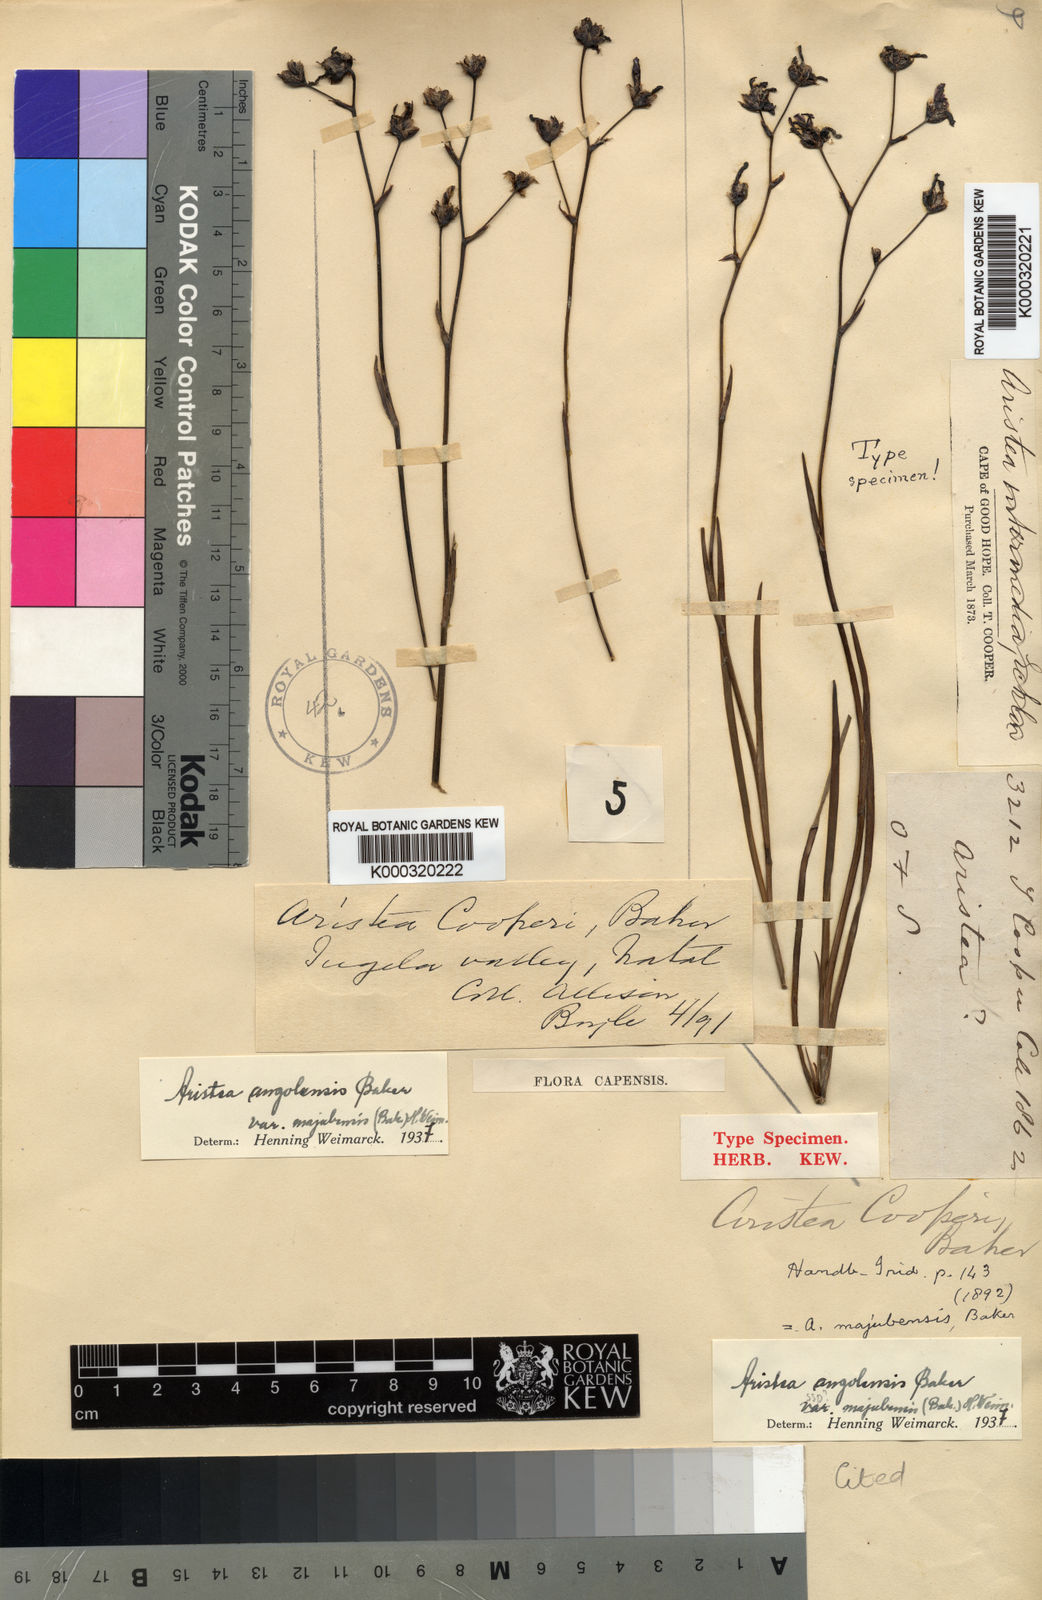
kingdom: Plantae
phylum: Tracheophyta
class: Liliopsida
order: Asparagales
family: Iridaceae
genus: Aristea
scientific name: Aristea majubensis
